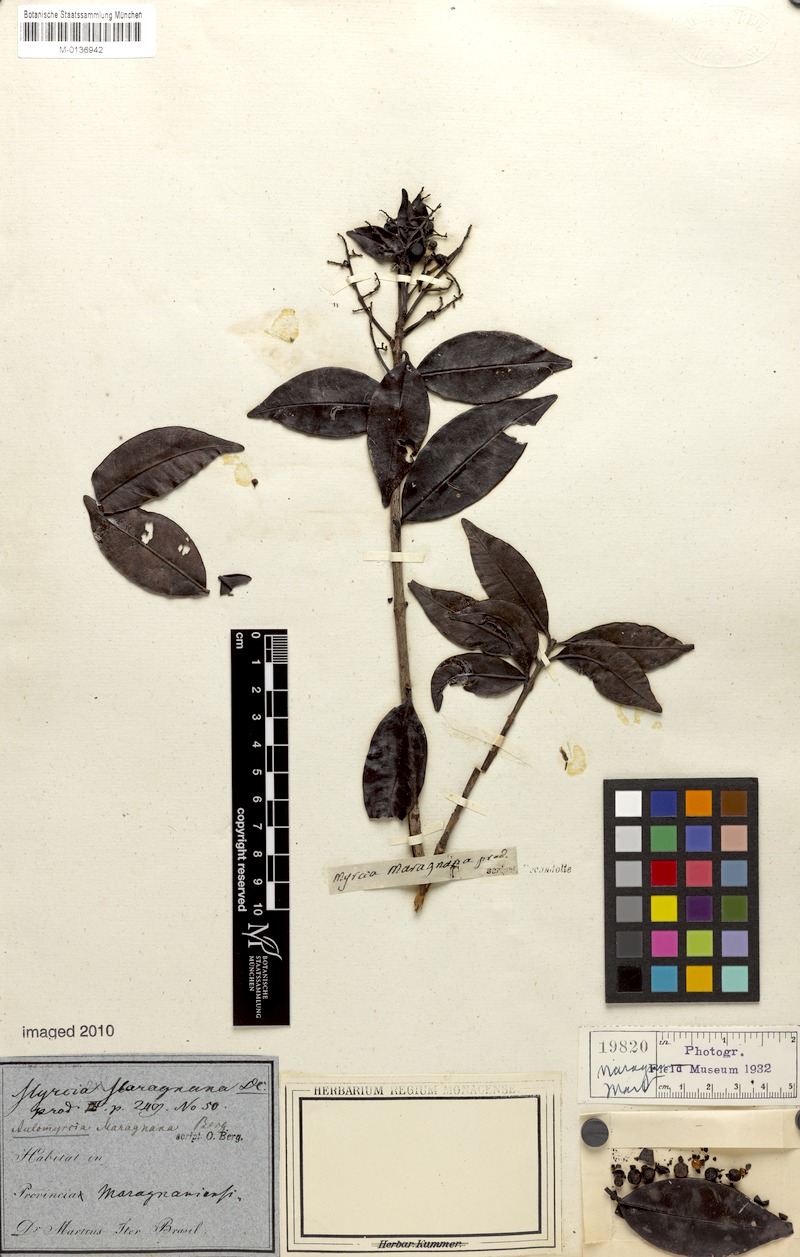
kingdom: Plantae
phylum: Tracheophyta
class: Magnoliopsida
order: Myrtales
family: Myrtaceae
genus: Myrcia
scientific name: Myrcia maraguana
